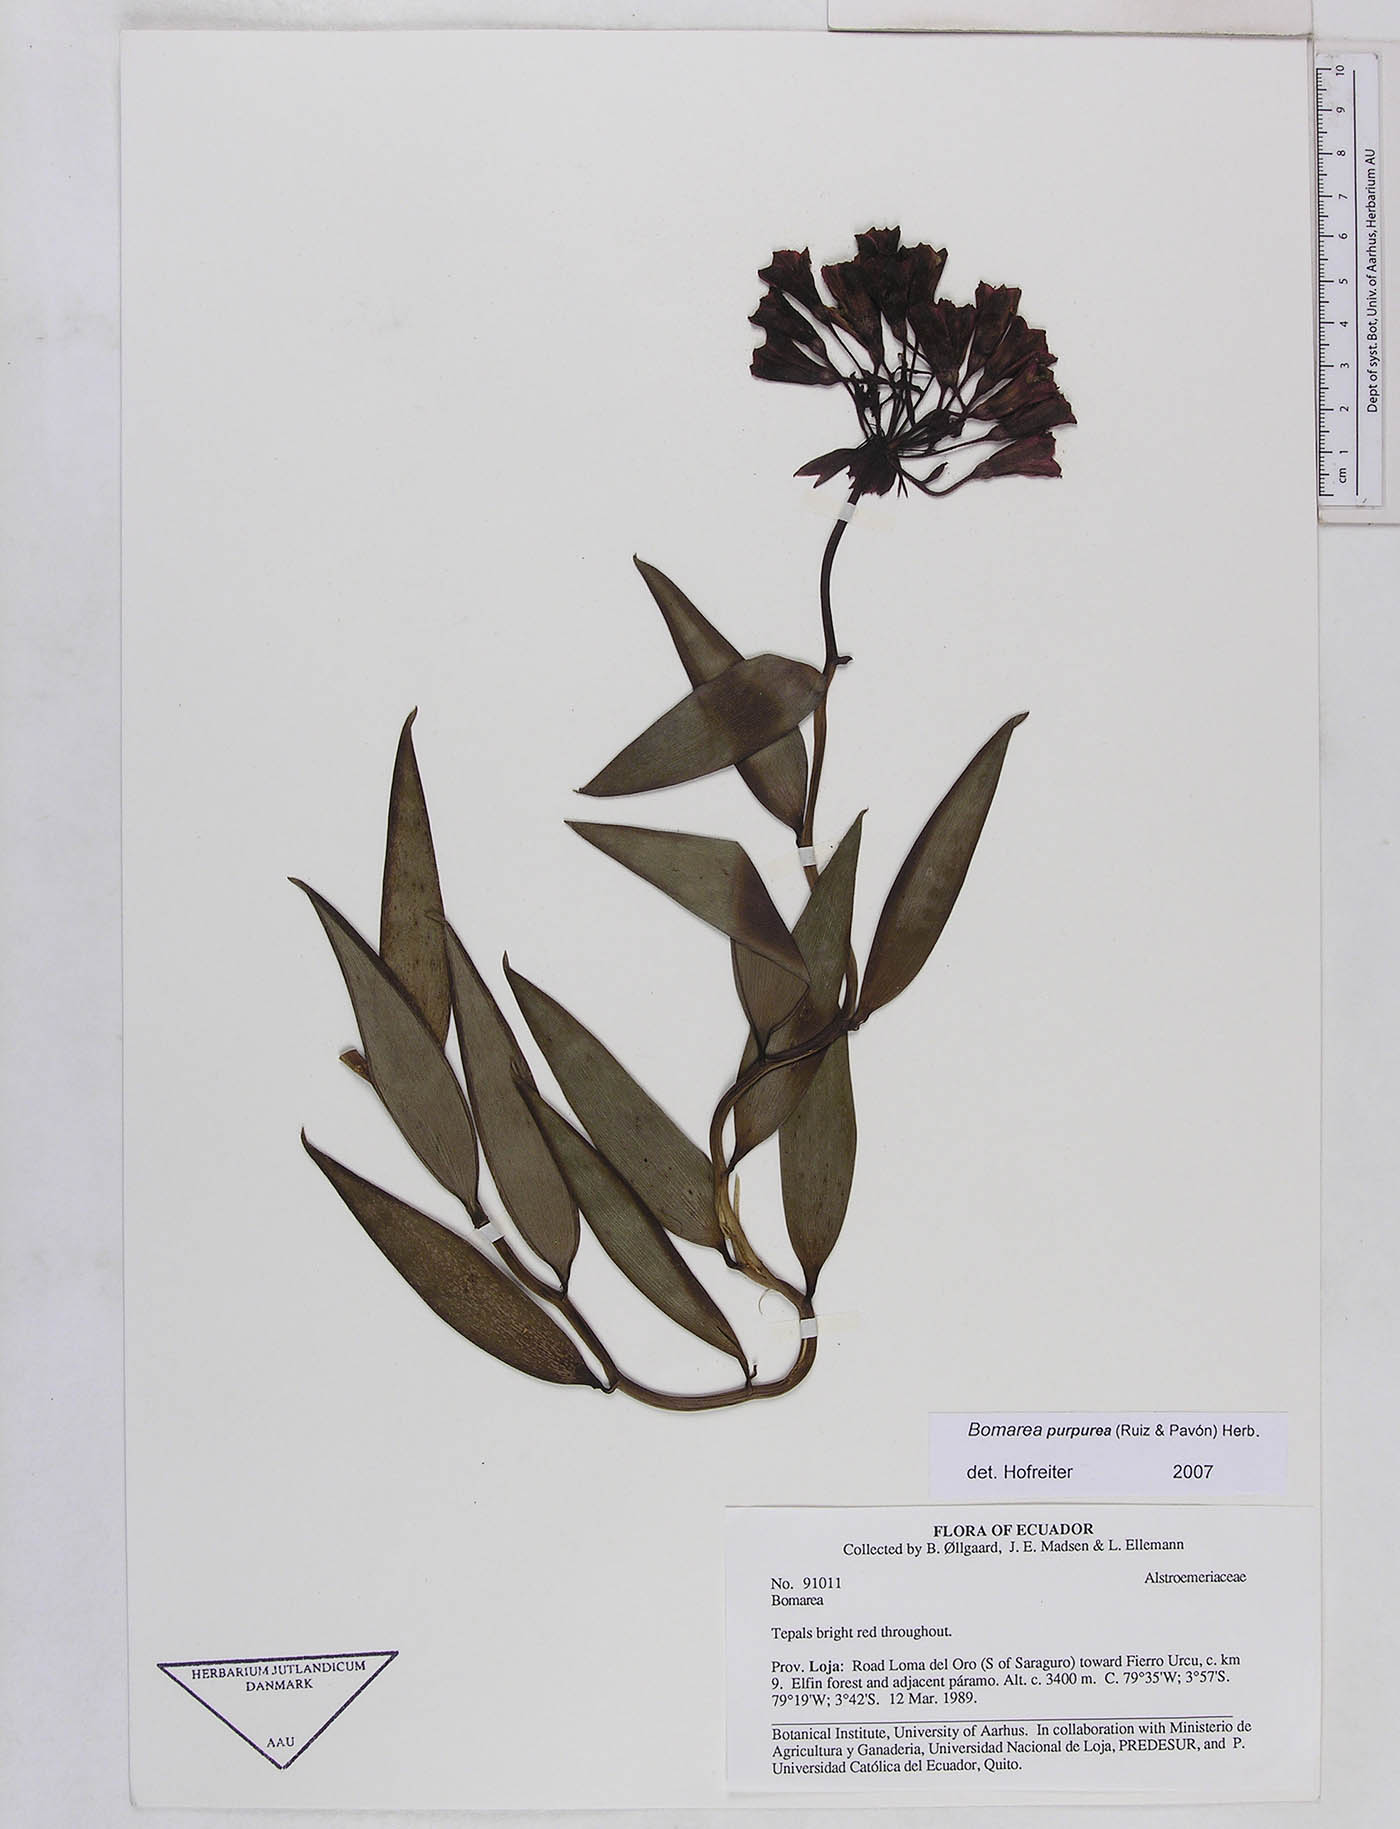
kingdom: Plantae
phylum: Tracheophyta
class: Liliopsida
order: Liliales
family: Alstroemeriaceae
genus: Bomarea
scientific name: Bomarea purpurea
